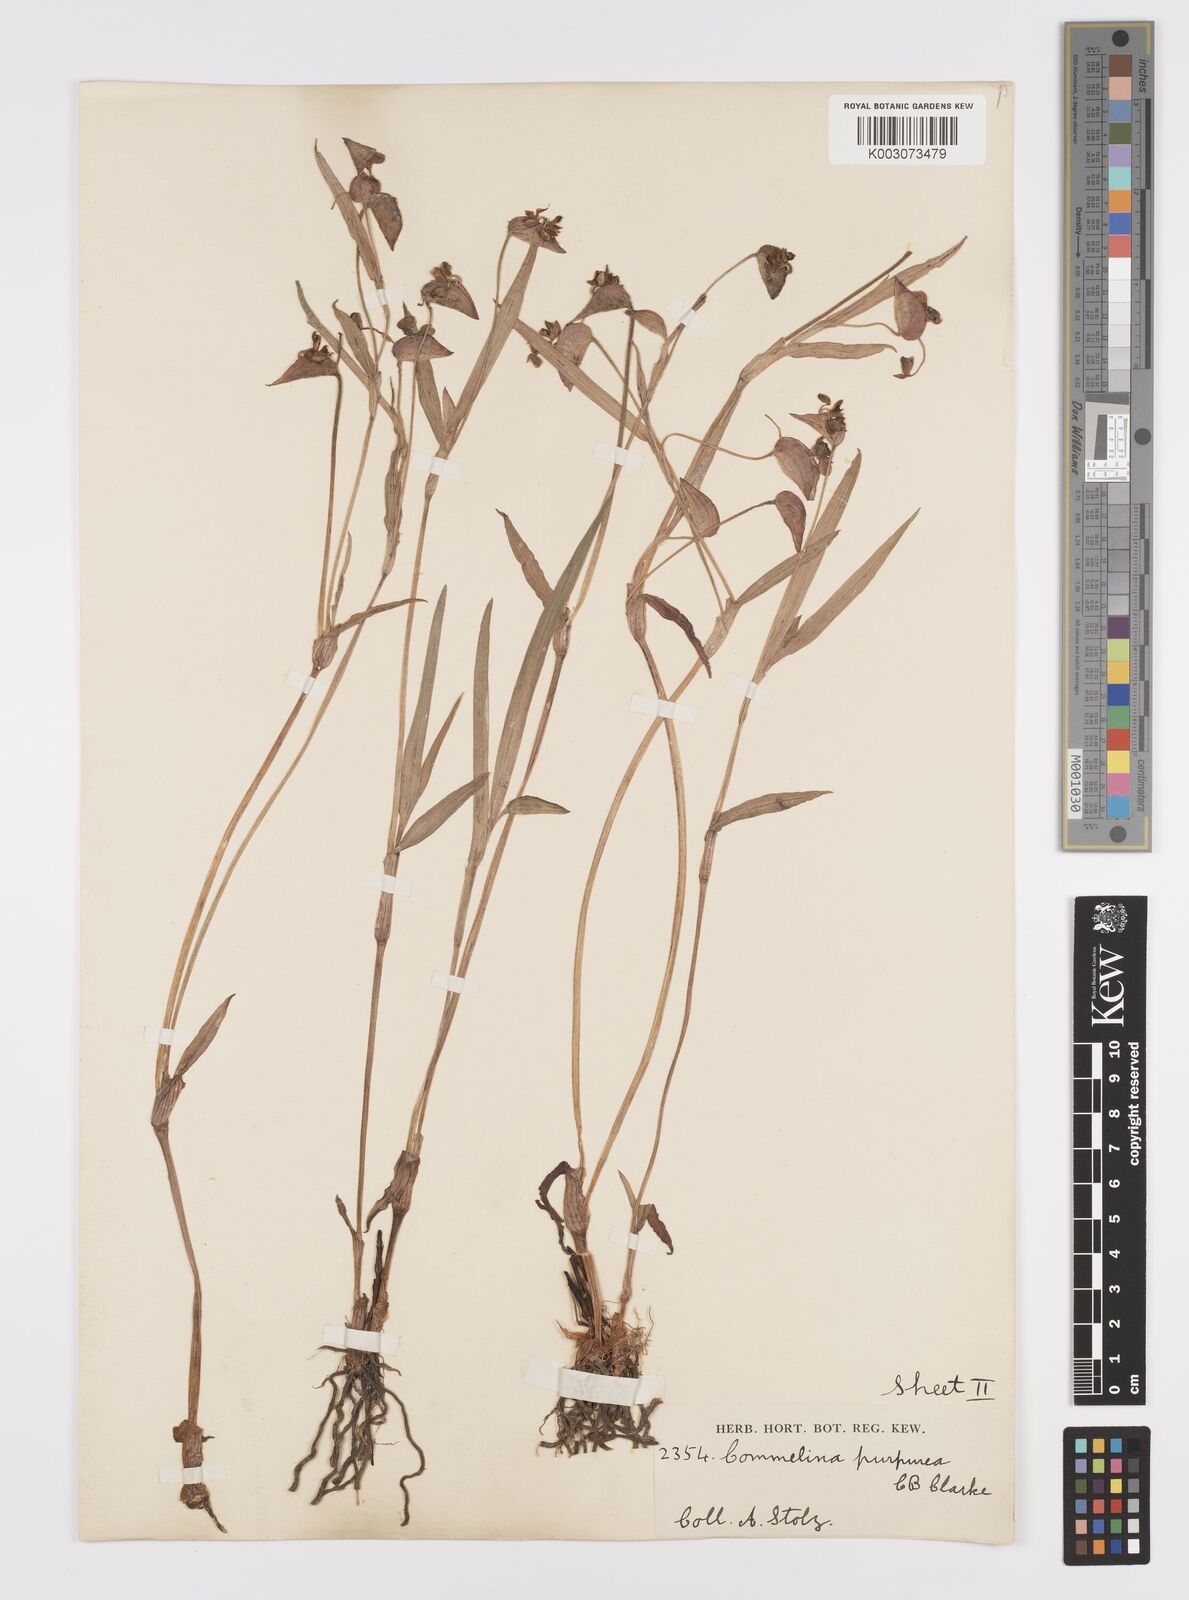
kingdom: Plantae
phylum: Tracheophyta
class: Liliopsida
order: Commelinales
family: Commelinaceae
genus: Commelina
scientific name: Commelina kituloensis
